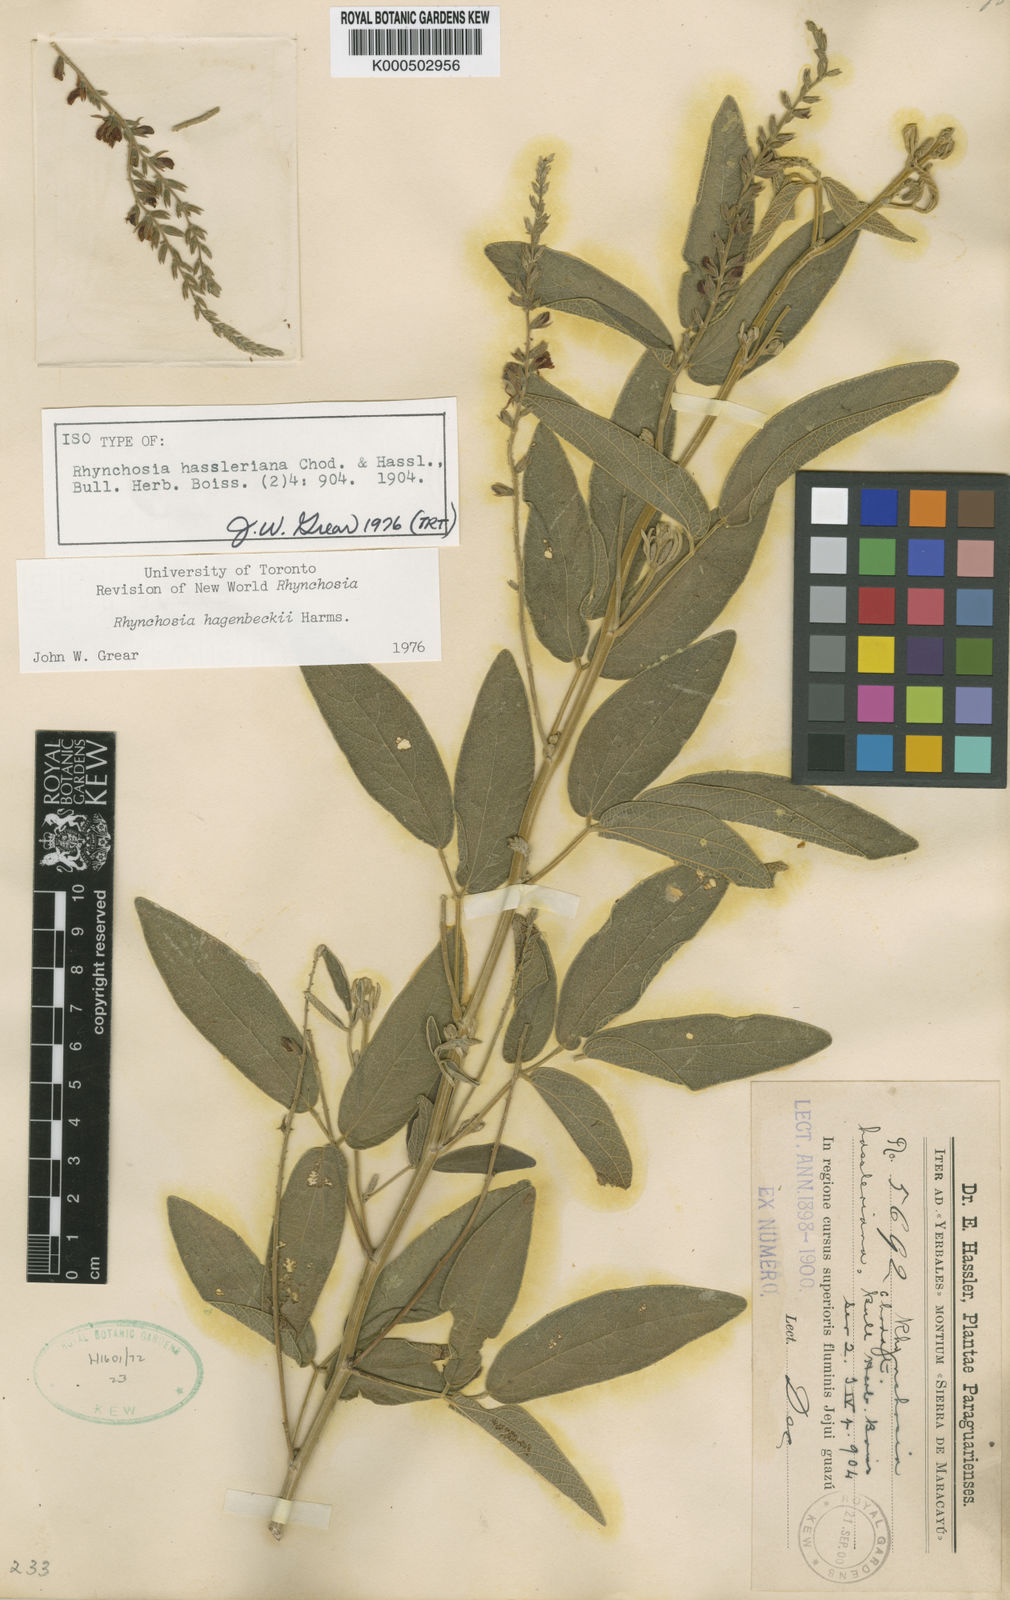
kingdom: Plantae
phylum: Tracheophyta
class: Magnoliopsida
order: Fabales
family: Fabaceae
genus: Rhynchosia
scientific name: Rhynchosia balansae
